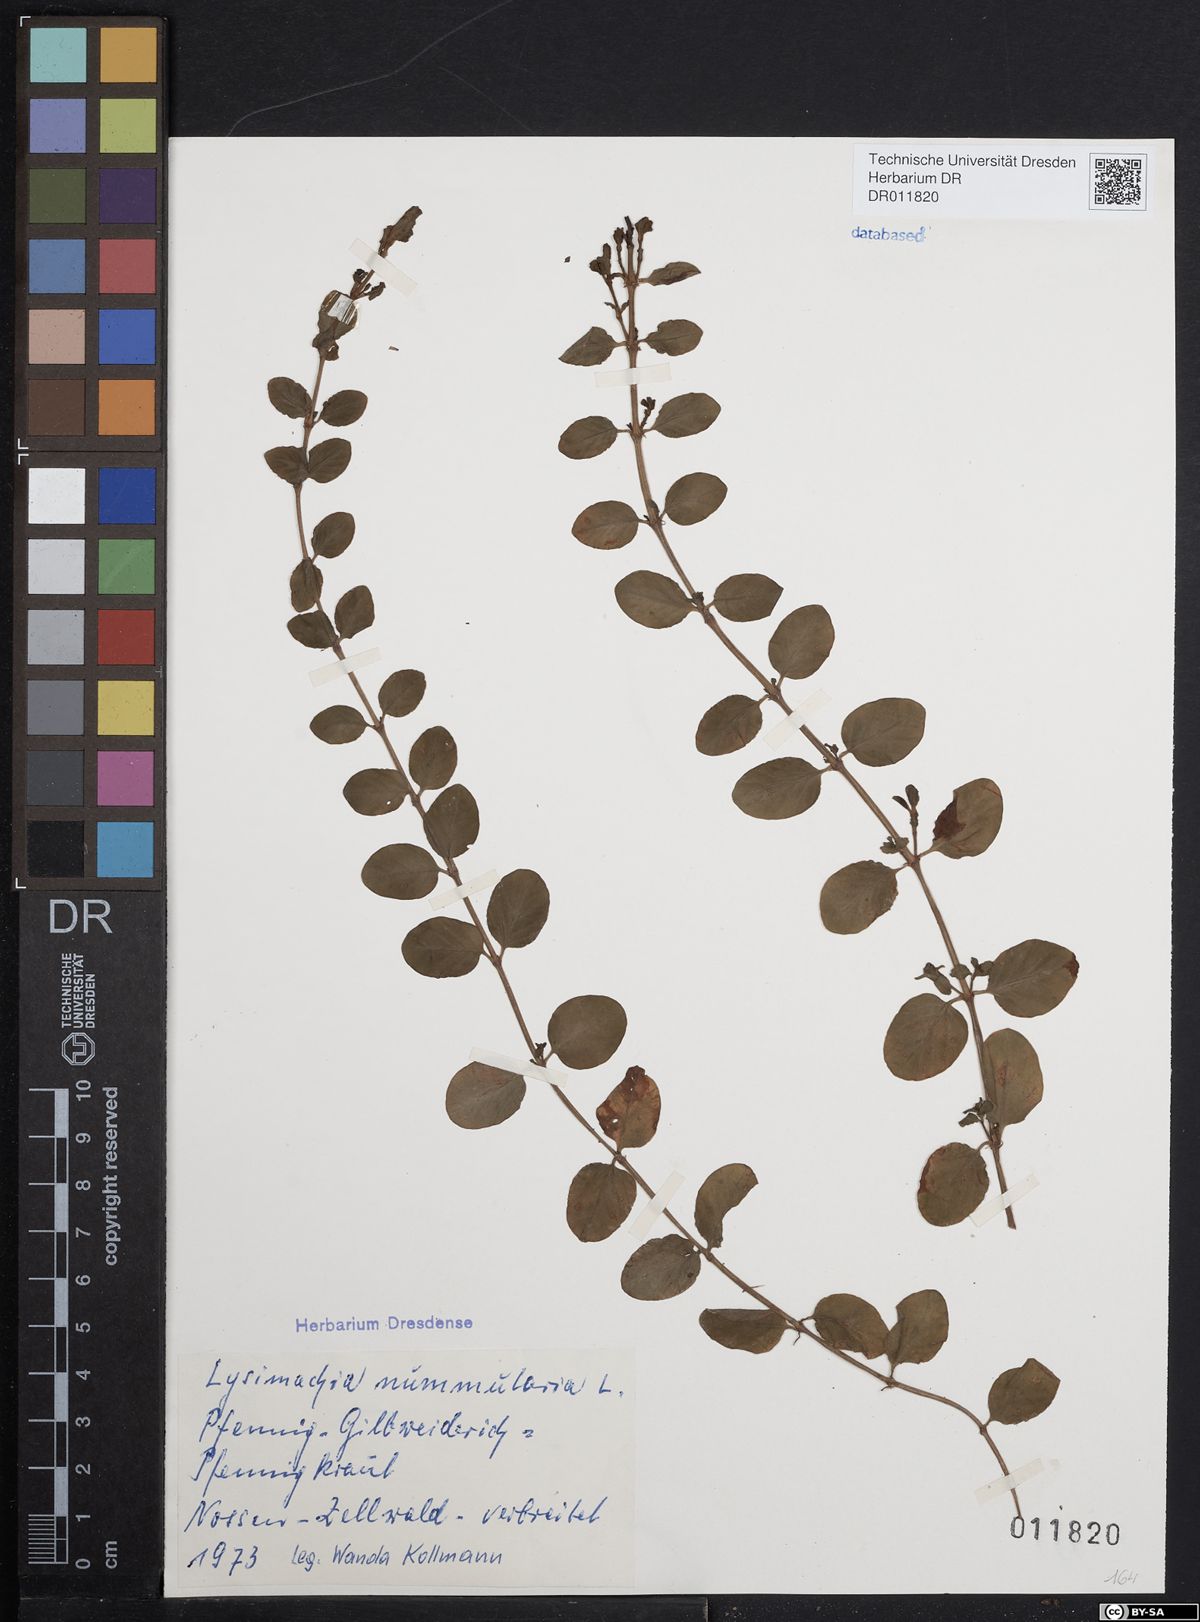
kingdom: Plantae
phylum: Tracheophyta
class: Magnoliopsida
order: Ericales
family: Primulaceae
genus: Lysimachia
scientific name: Lysimachia nummularia
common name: Moneywort
